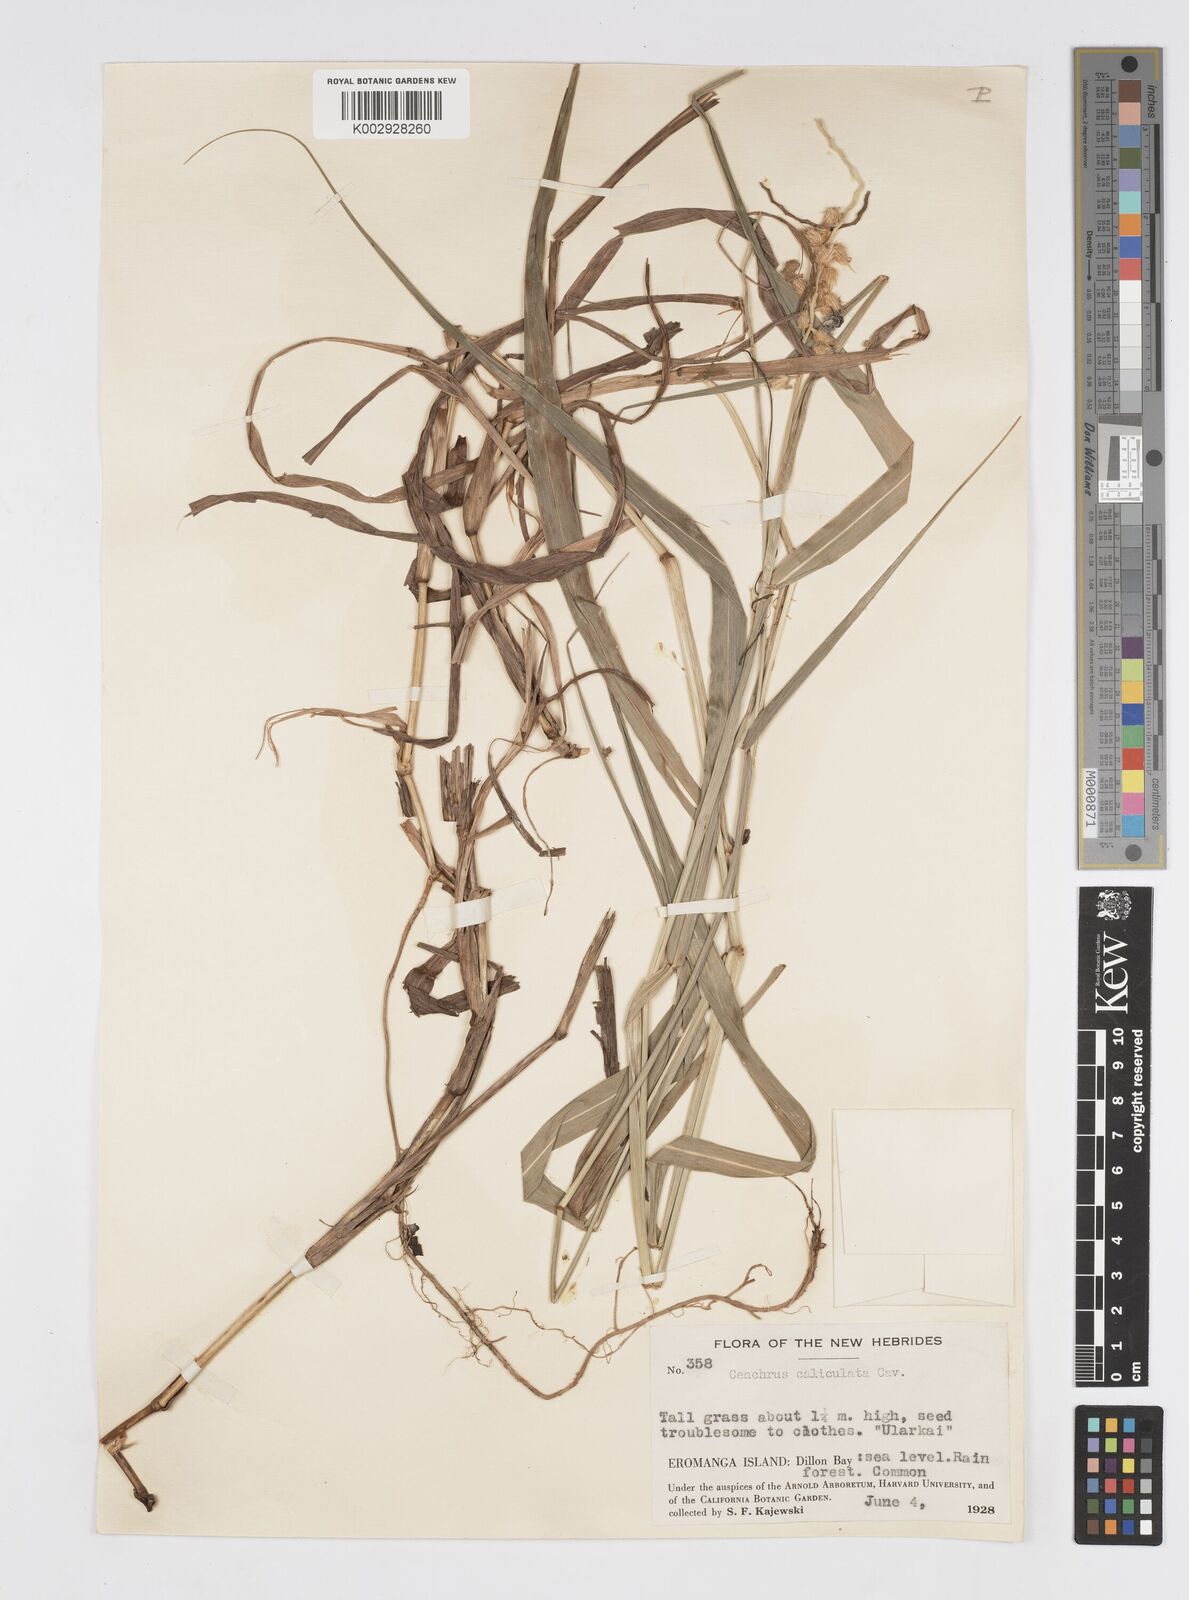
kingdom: Plantae
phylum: Tracheophyta
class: Liliopsida
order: Poales
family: Poaceae
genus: Cenchrus
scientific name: Cenchrus caliculatus
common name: Large bur grass
